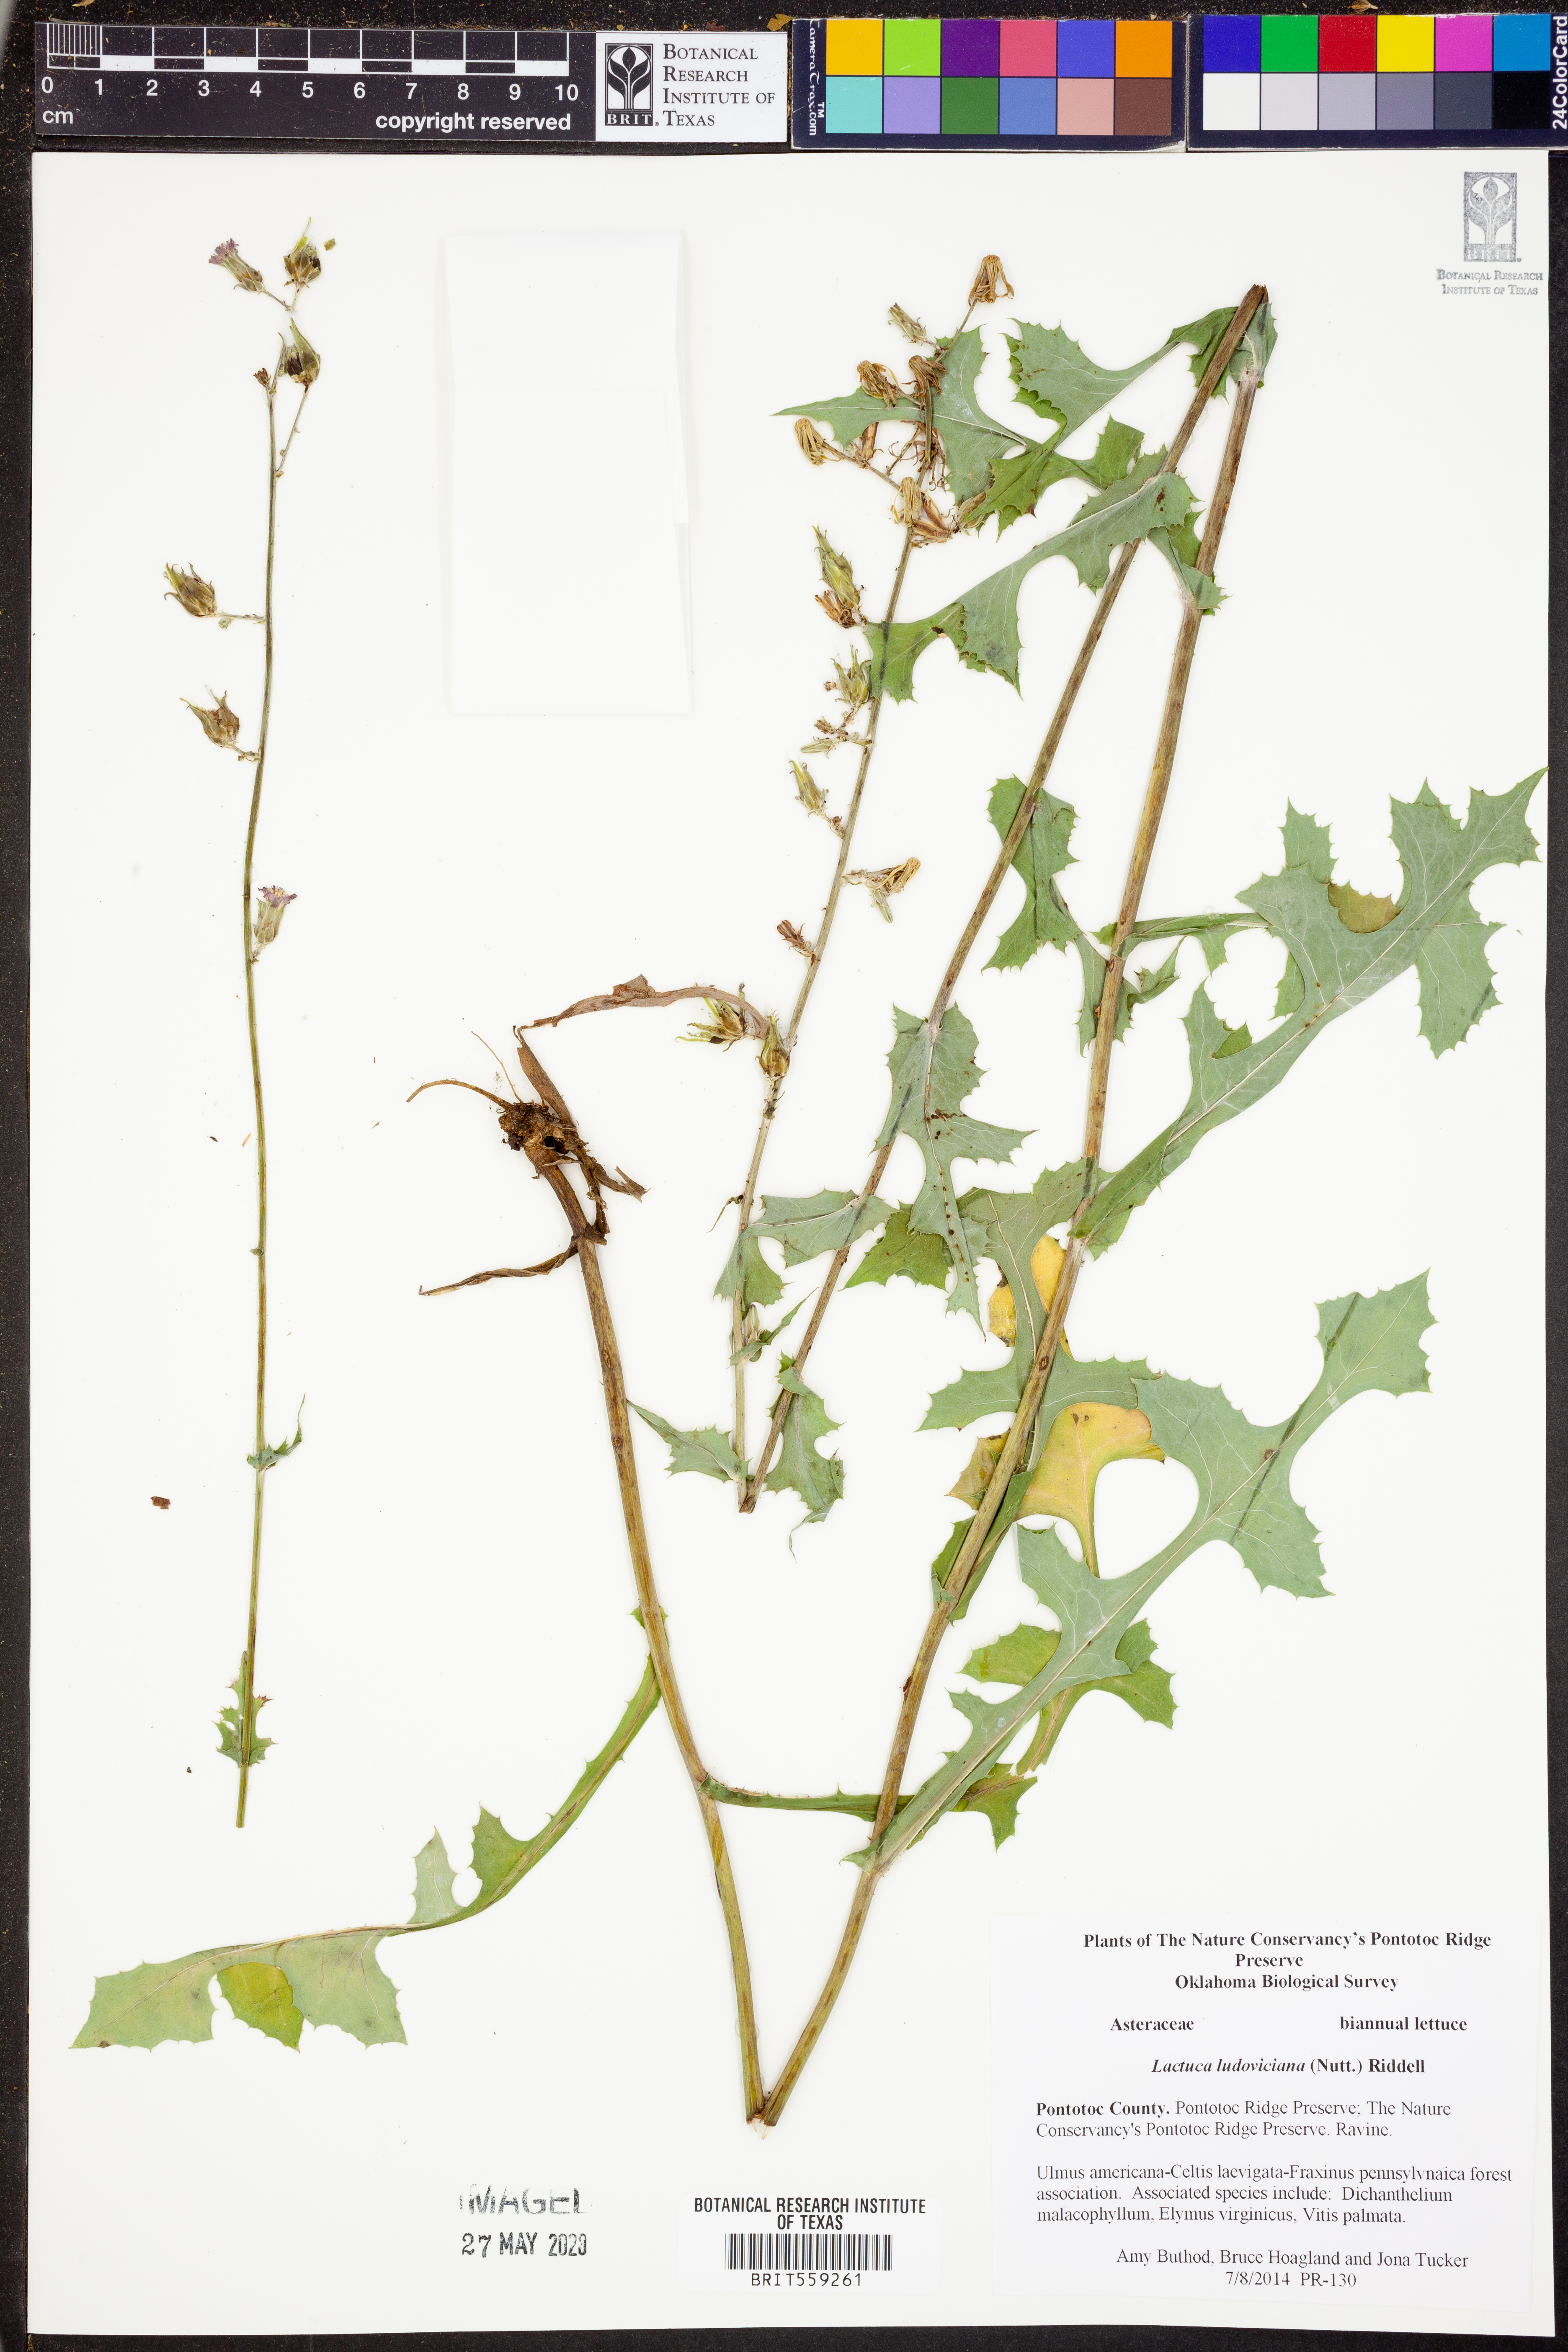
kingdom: Plantae
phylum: Tracheophyta
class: Magnoliopsida
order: Asterales
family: Asteraceae
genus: Lactuca
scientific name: Lactuca ludoviciana
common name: Louisiana lettuce
